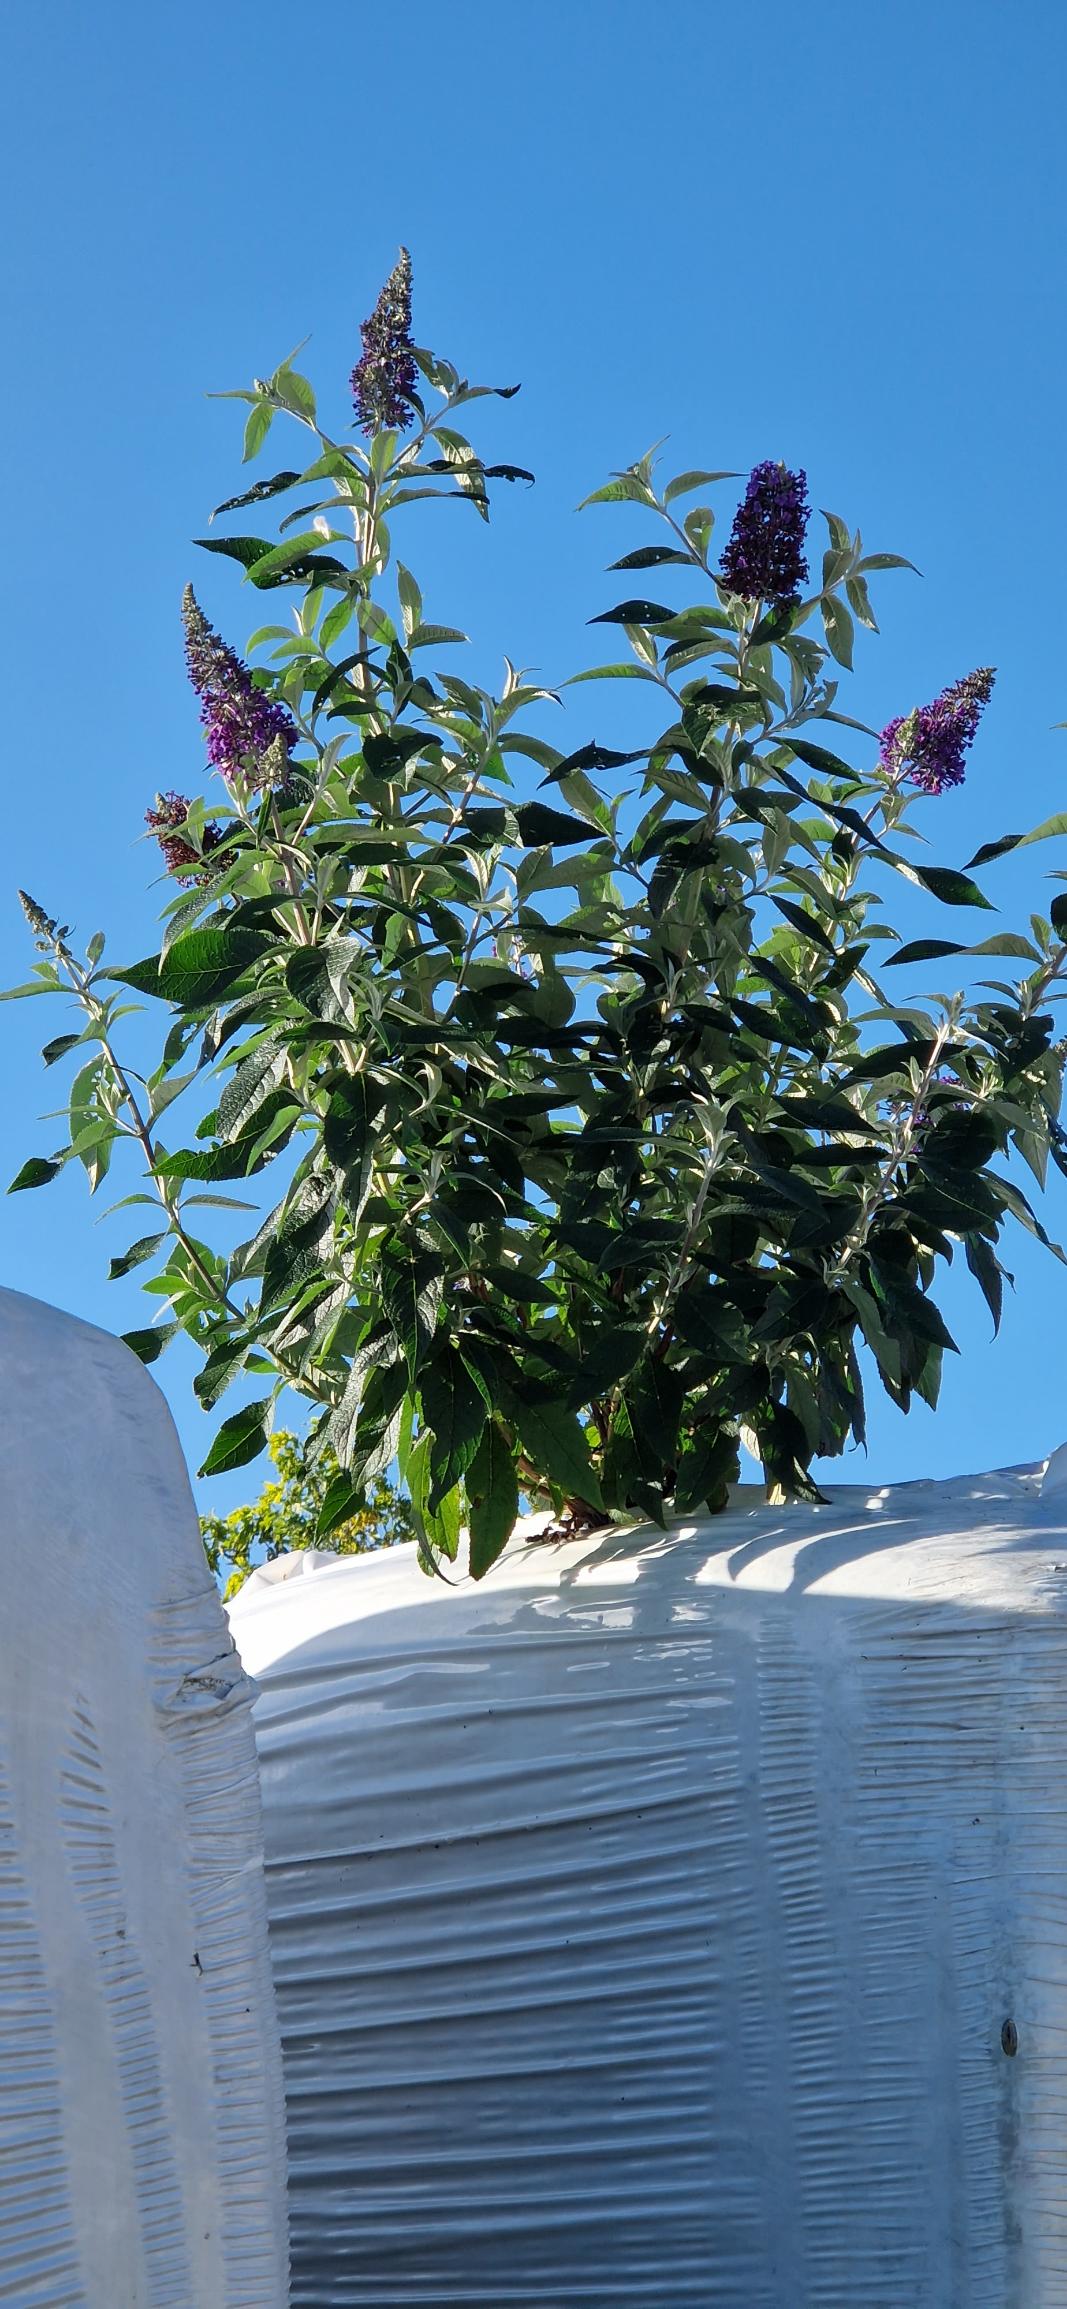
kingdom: Plantae
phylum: Tracheophyta
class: Magnoliopsida
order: Lamiales
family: Scrophulariaceae
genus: Buddleja
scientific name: Buddleja davidii
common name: Sommerfuglebusk
